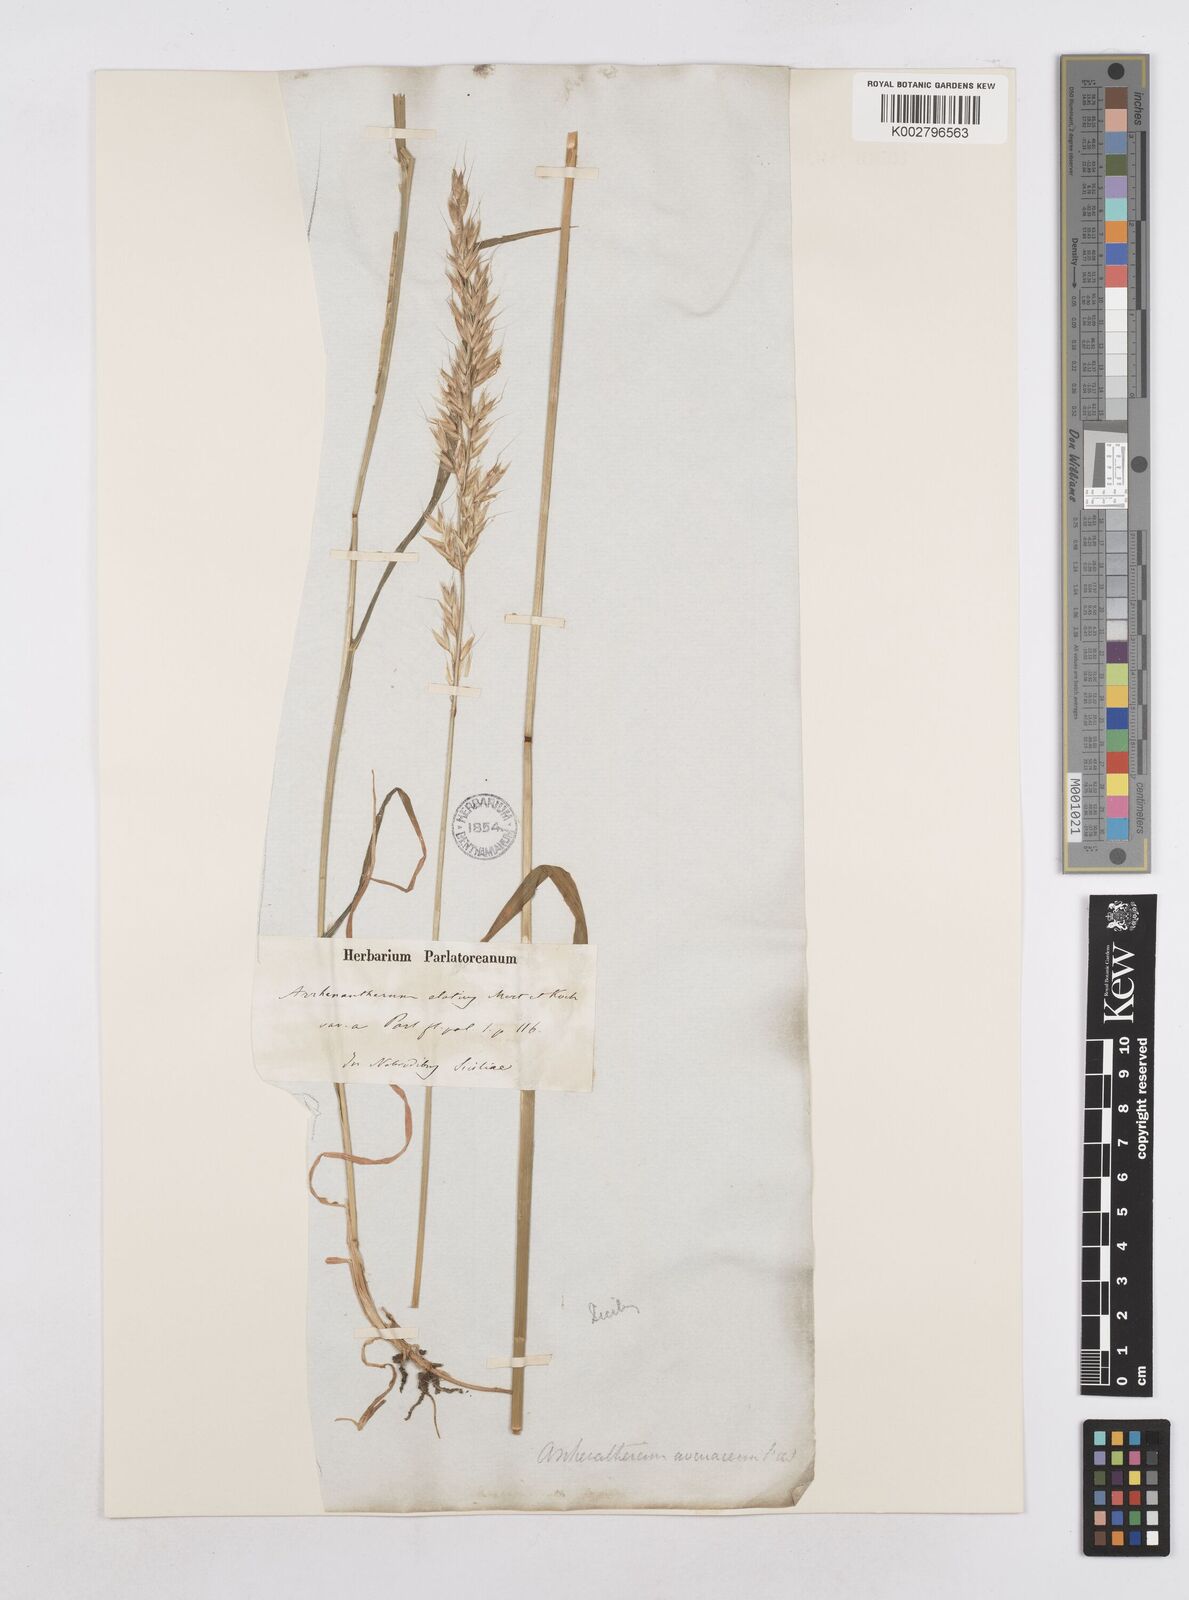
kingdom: Plantae
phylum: Tracheophyta
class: Liliopsida
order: Poales
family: Poaceae
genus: Arrhenatherum
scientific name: Arrhenatherum elatius
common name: Tall oatgrass
